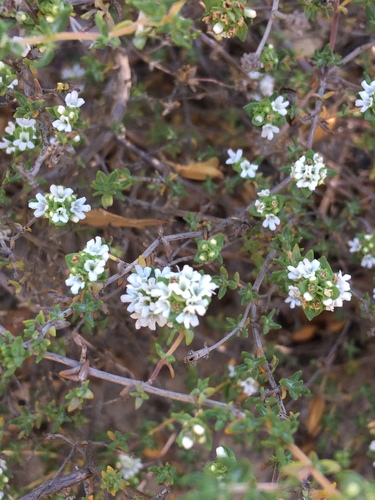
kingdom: Plantae
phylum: Tracheophyta
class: Magnoliopsida
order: Lamiales
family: Lamiaceae
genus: Thymus
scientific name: Thymus capitellatus
